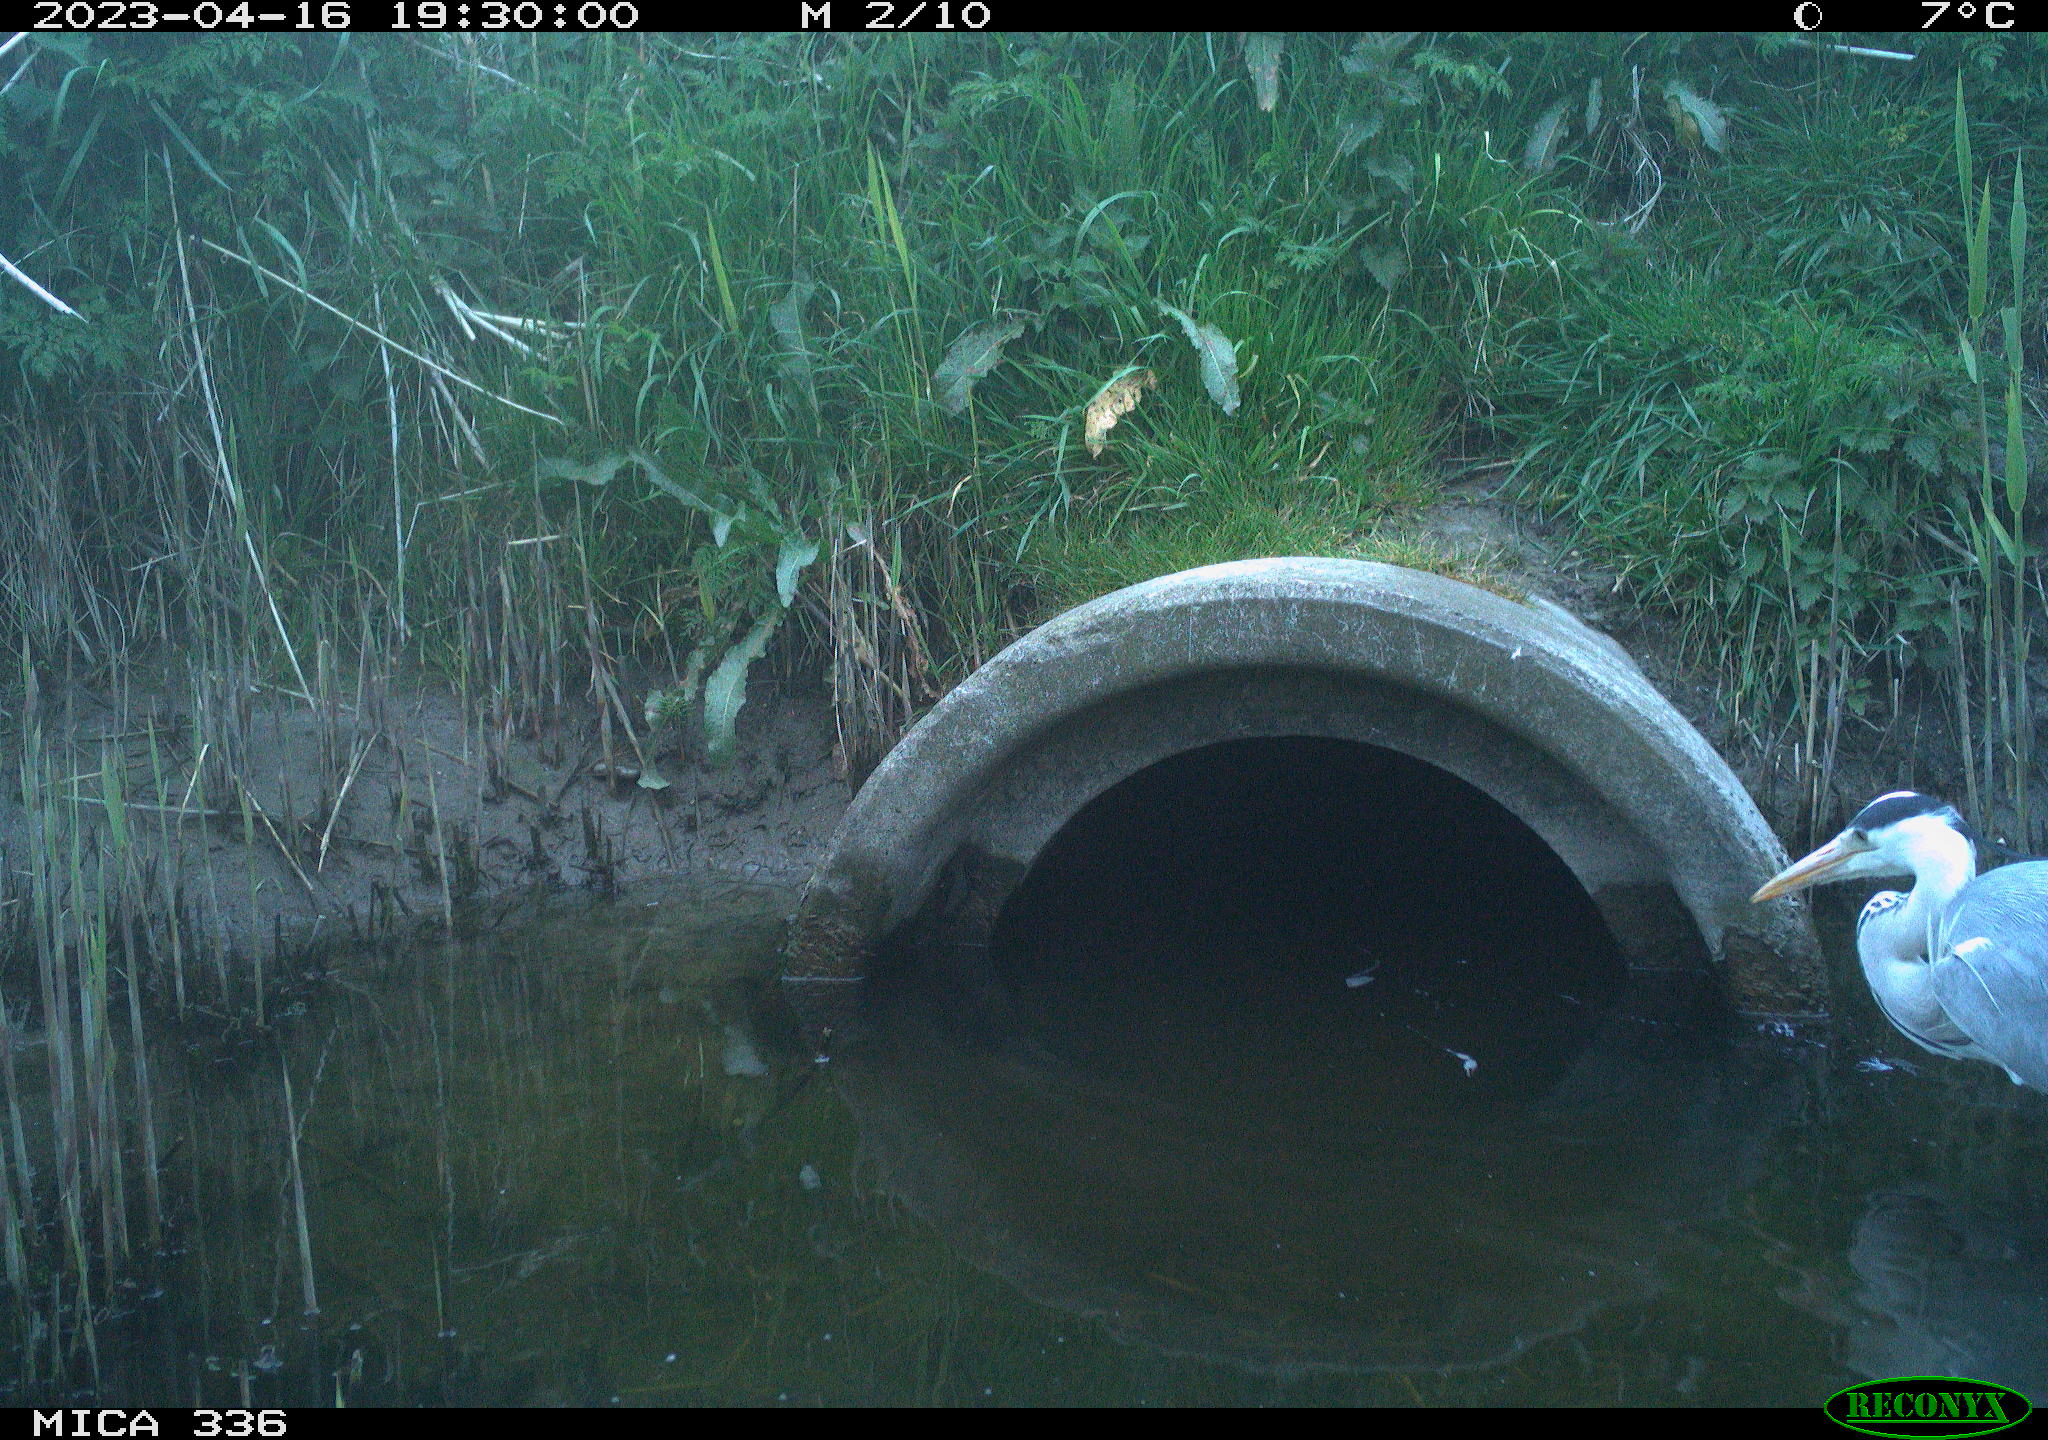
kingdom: Animalia
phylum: Chordata
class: Aves
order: Pelecaniformes
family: Ardeidae
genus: Ardea
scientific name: Ardea cinerea
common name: Grey heron
